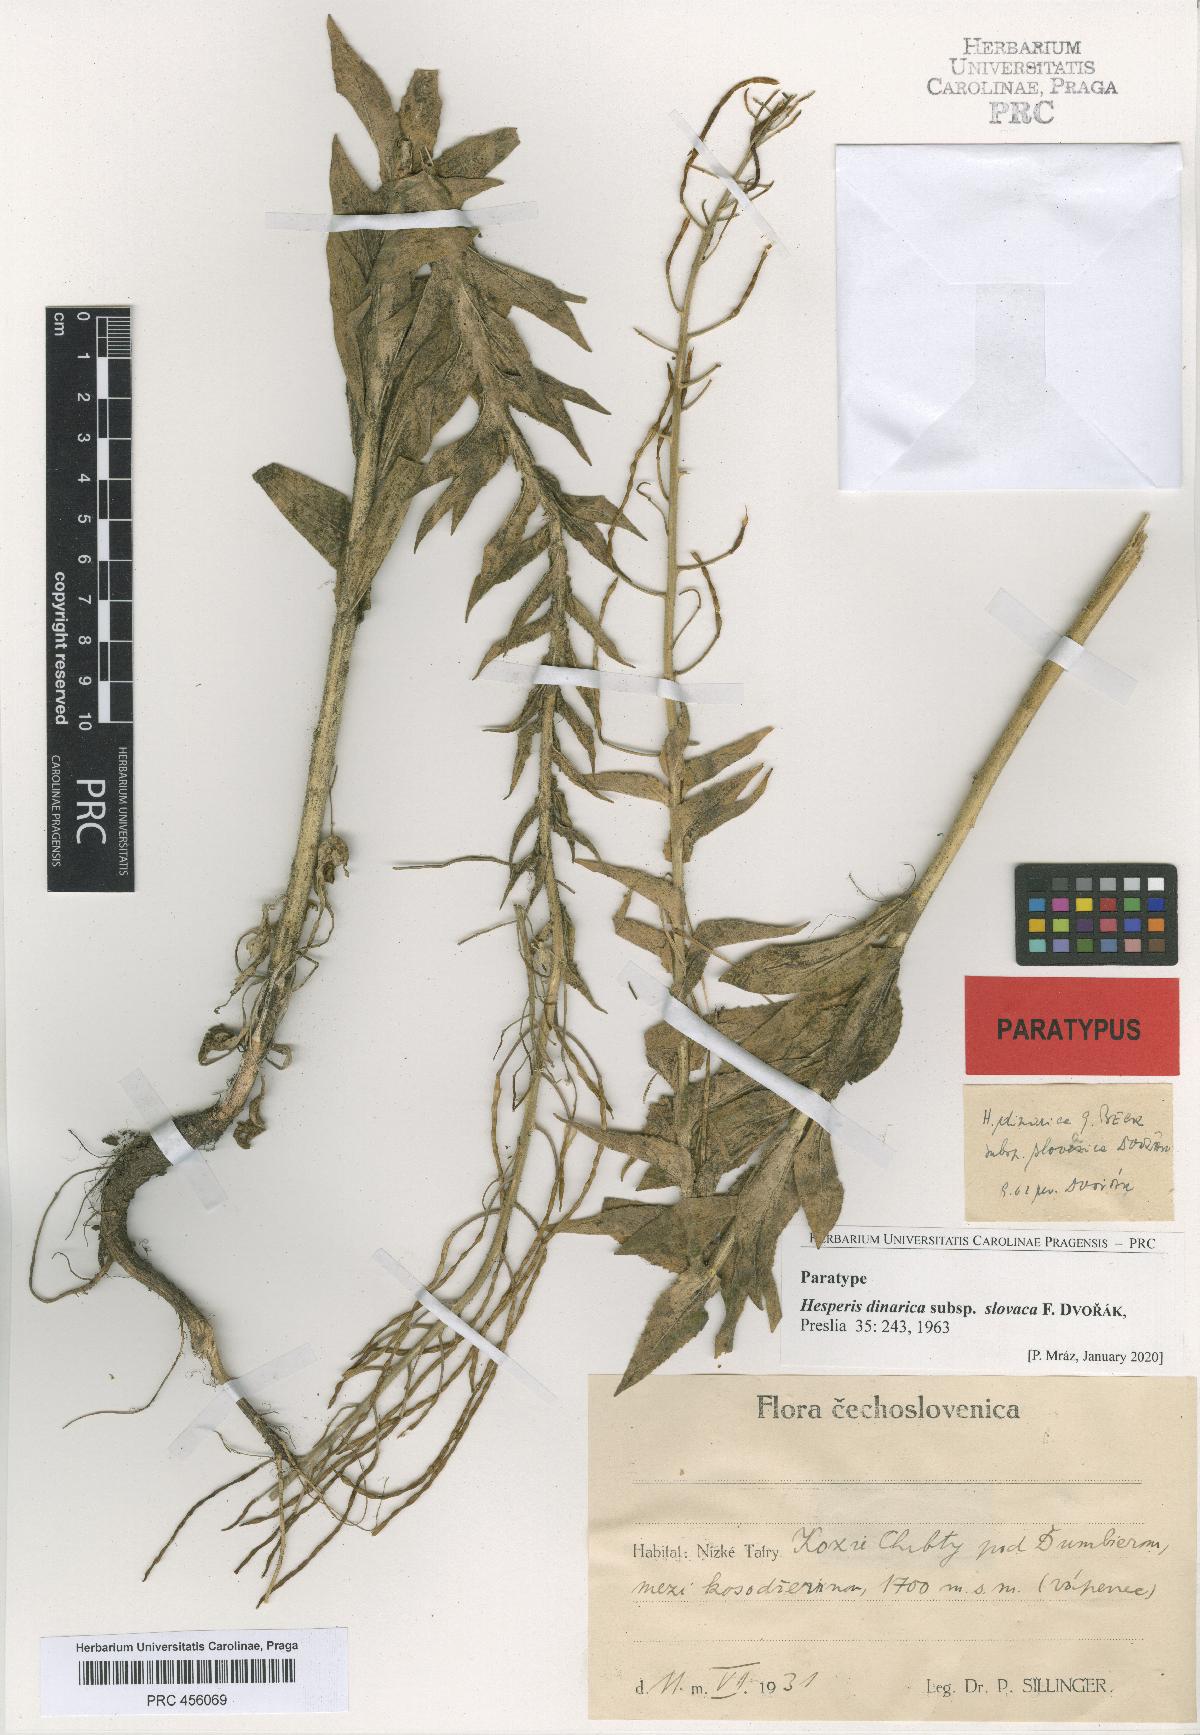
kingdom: Plantae
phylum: Tracheophyta
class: Magnoliopsida
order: Brassicales
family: Brassicaceae
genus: Hesperis
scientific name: Hesperis dinarica
